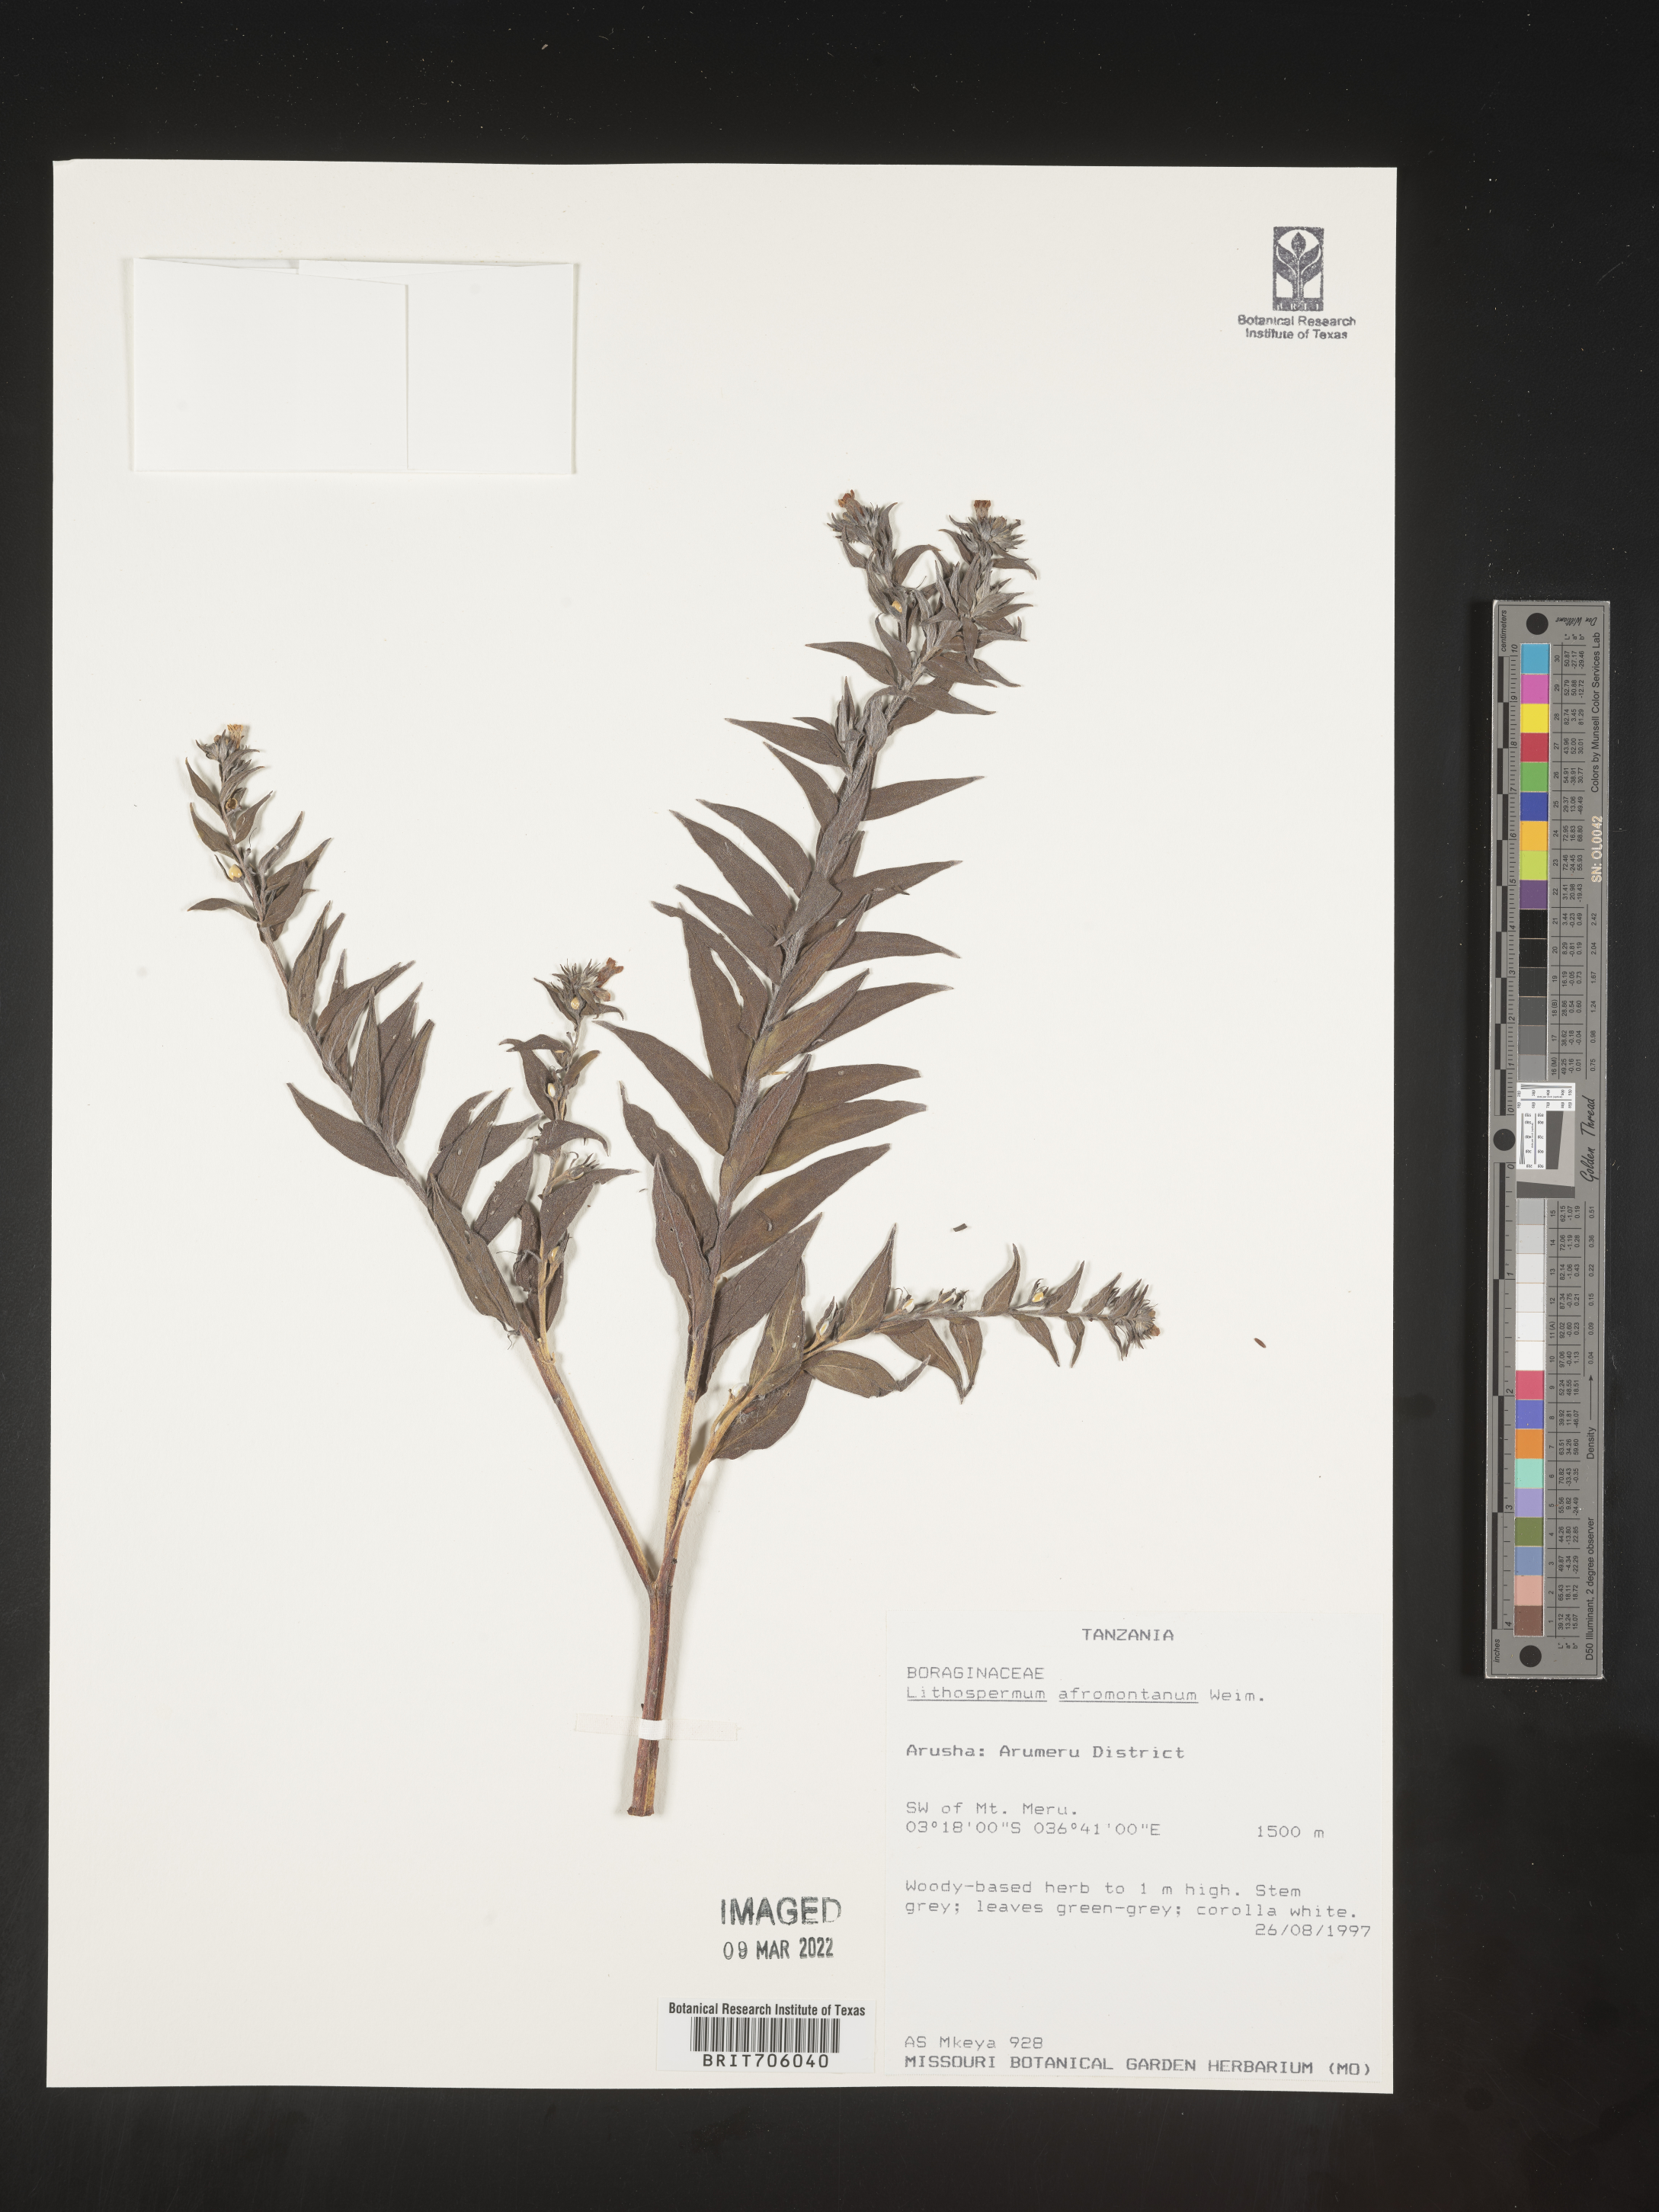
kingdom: Plantae
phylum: Tracheophyta
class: Magnoliopsida
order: Boraginales
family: Boraginaceae
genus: Lithospermum
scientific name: Lithospermum
